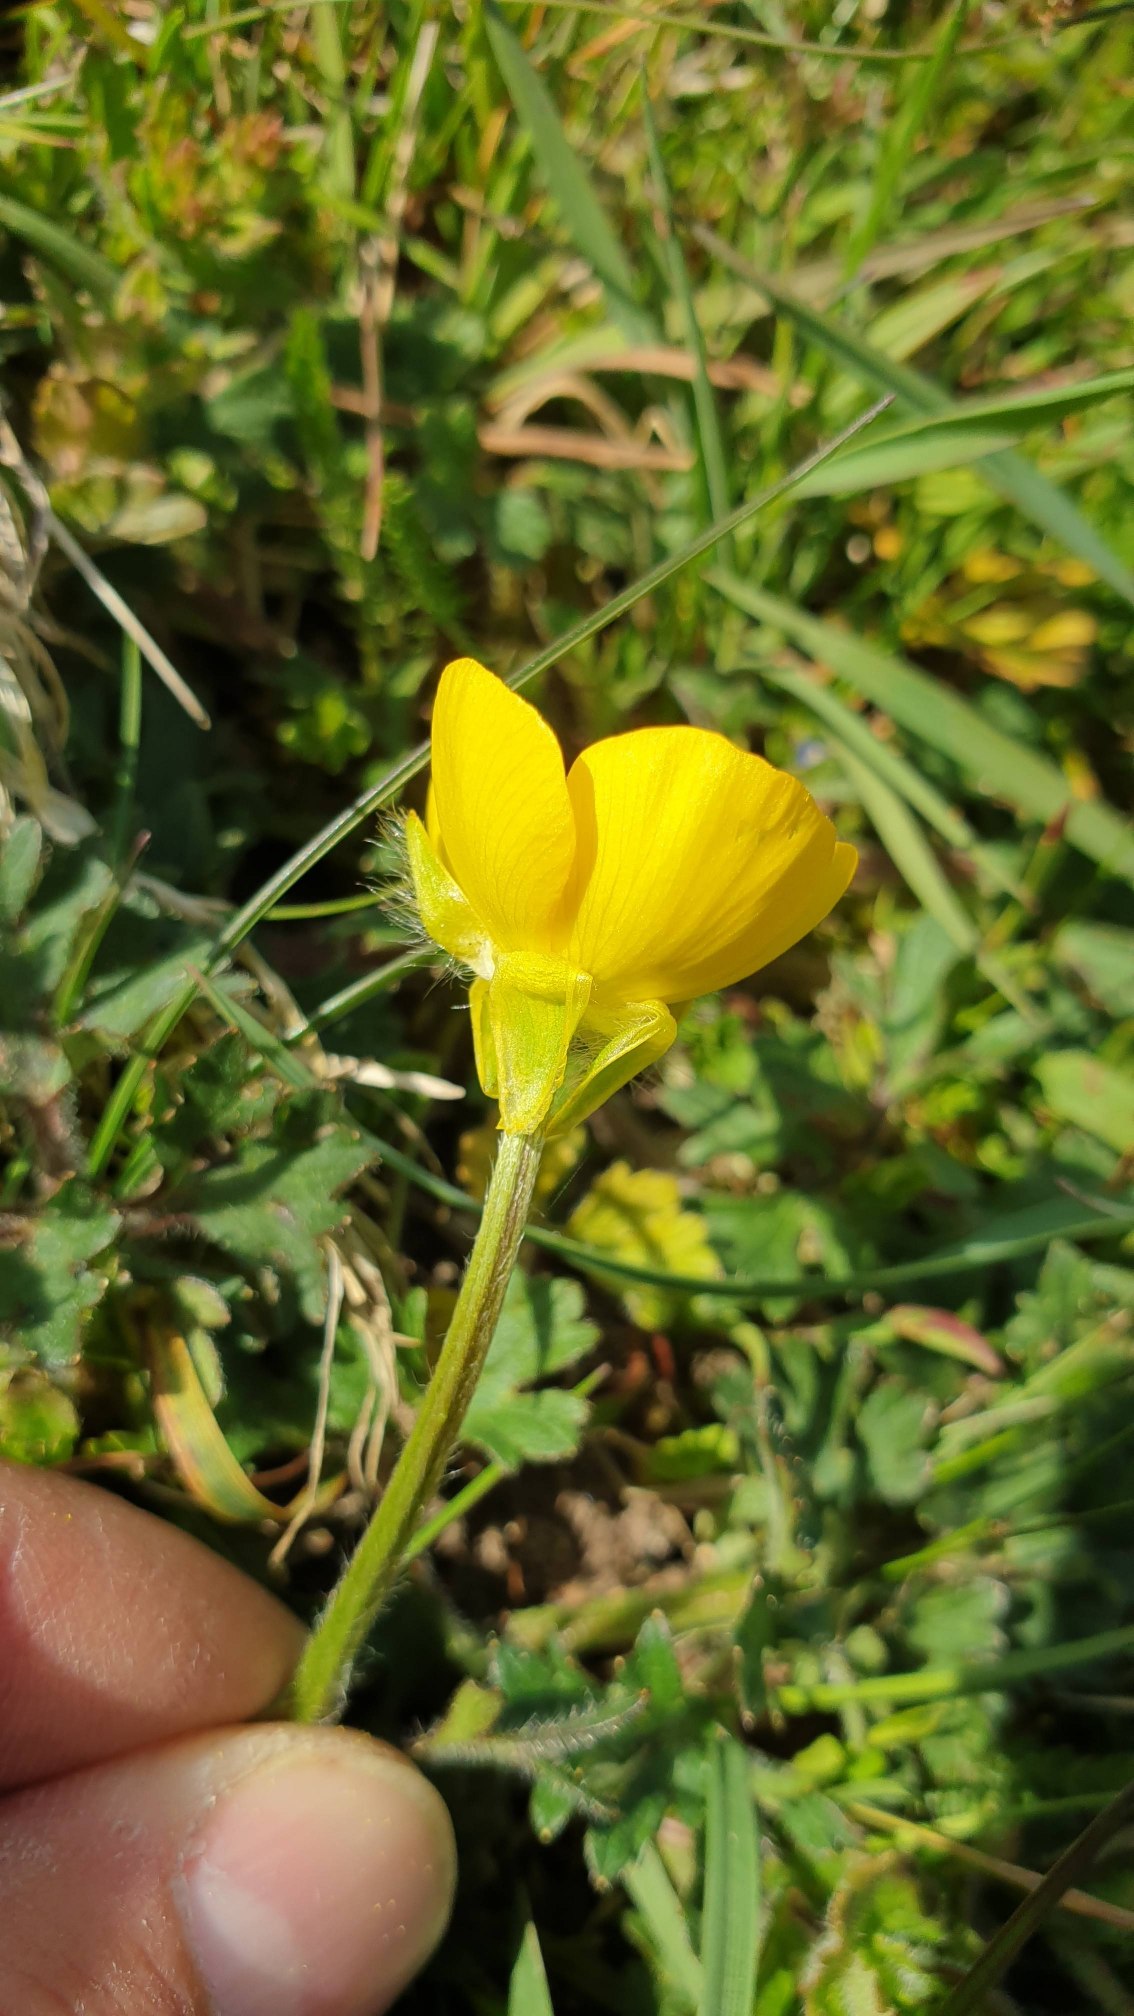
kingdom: Plantae
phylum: Tracheophyta
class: Magnoliopsida
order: Ranunculales
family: Ranunculaceae
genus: Ranunculus
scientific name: Ranunculus bulbosus
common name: Knold-ranunkel
